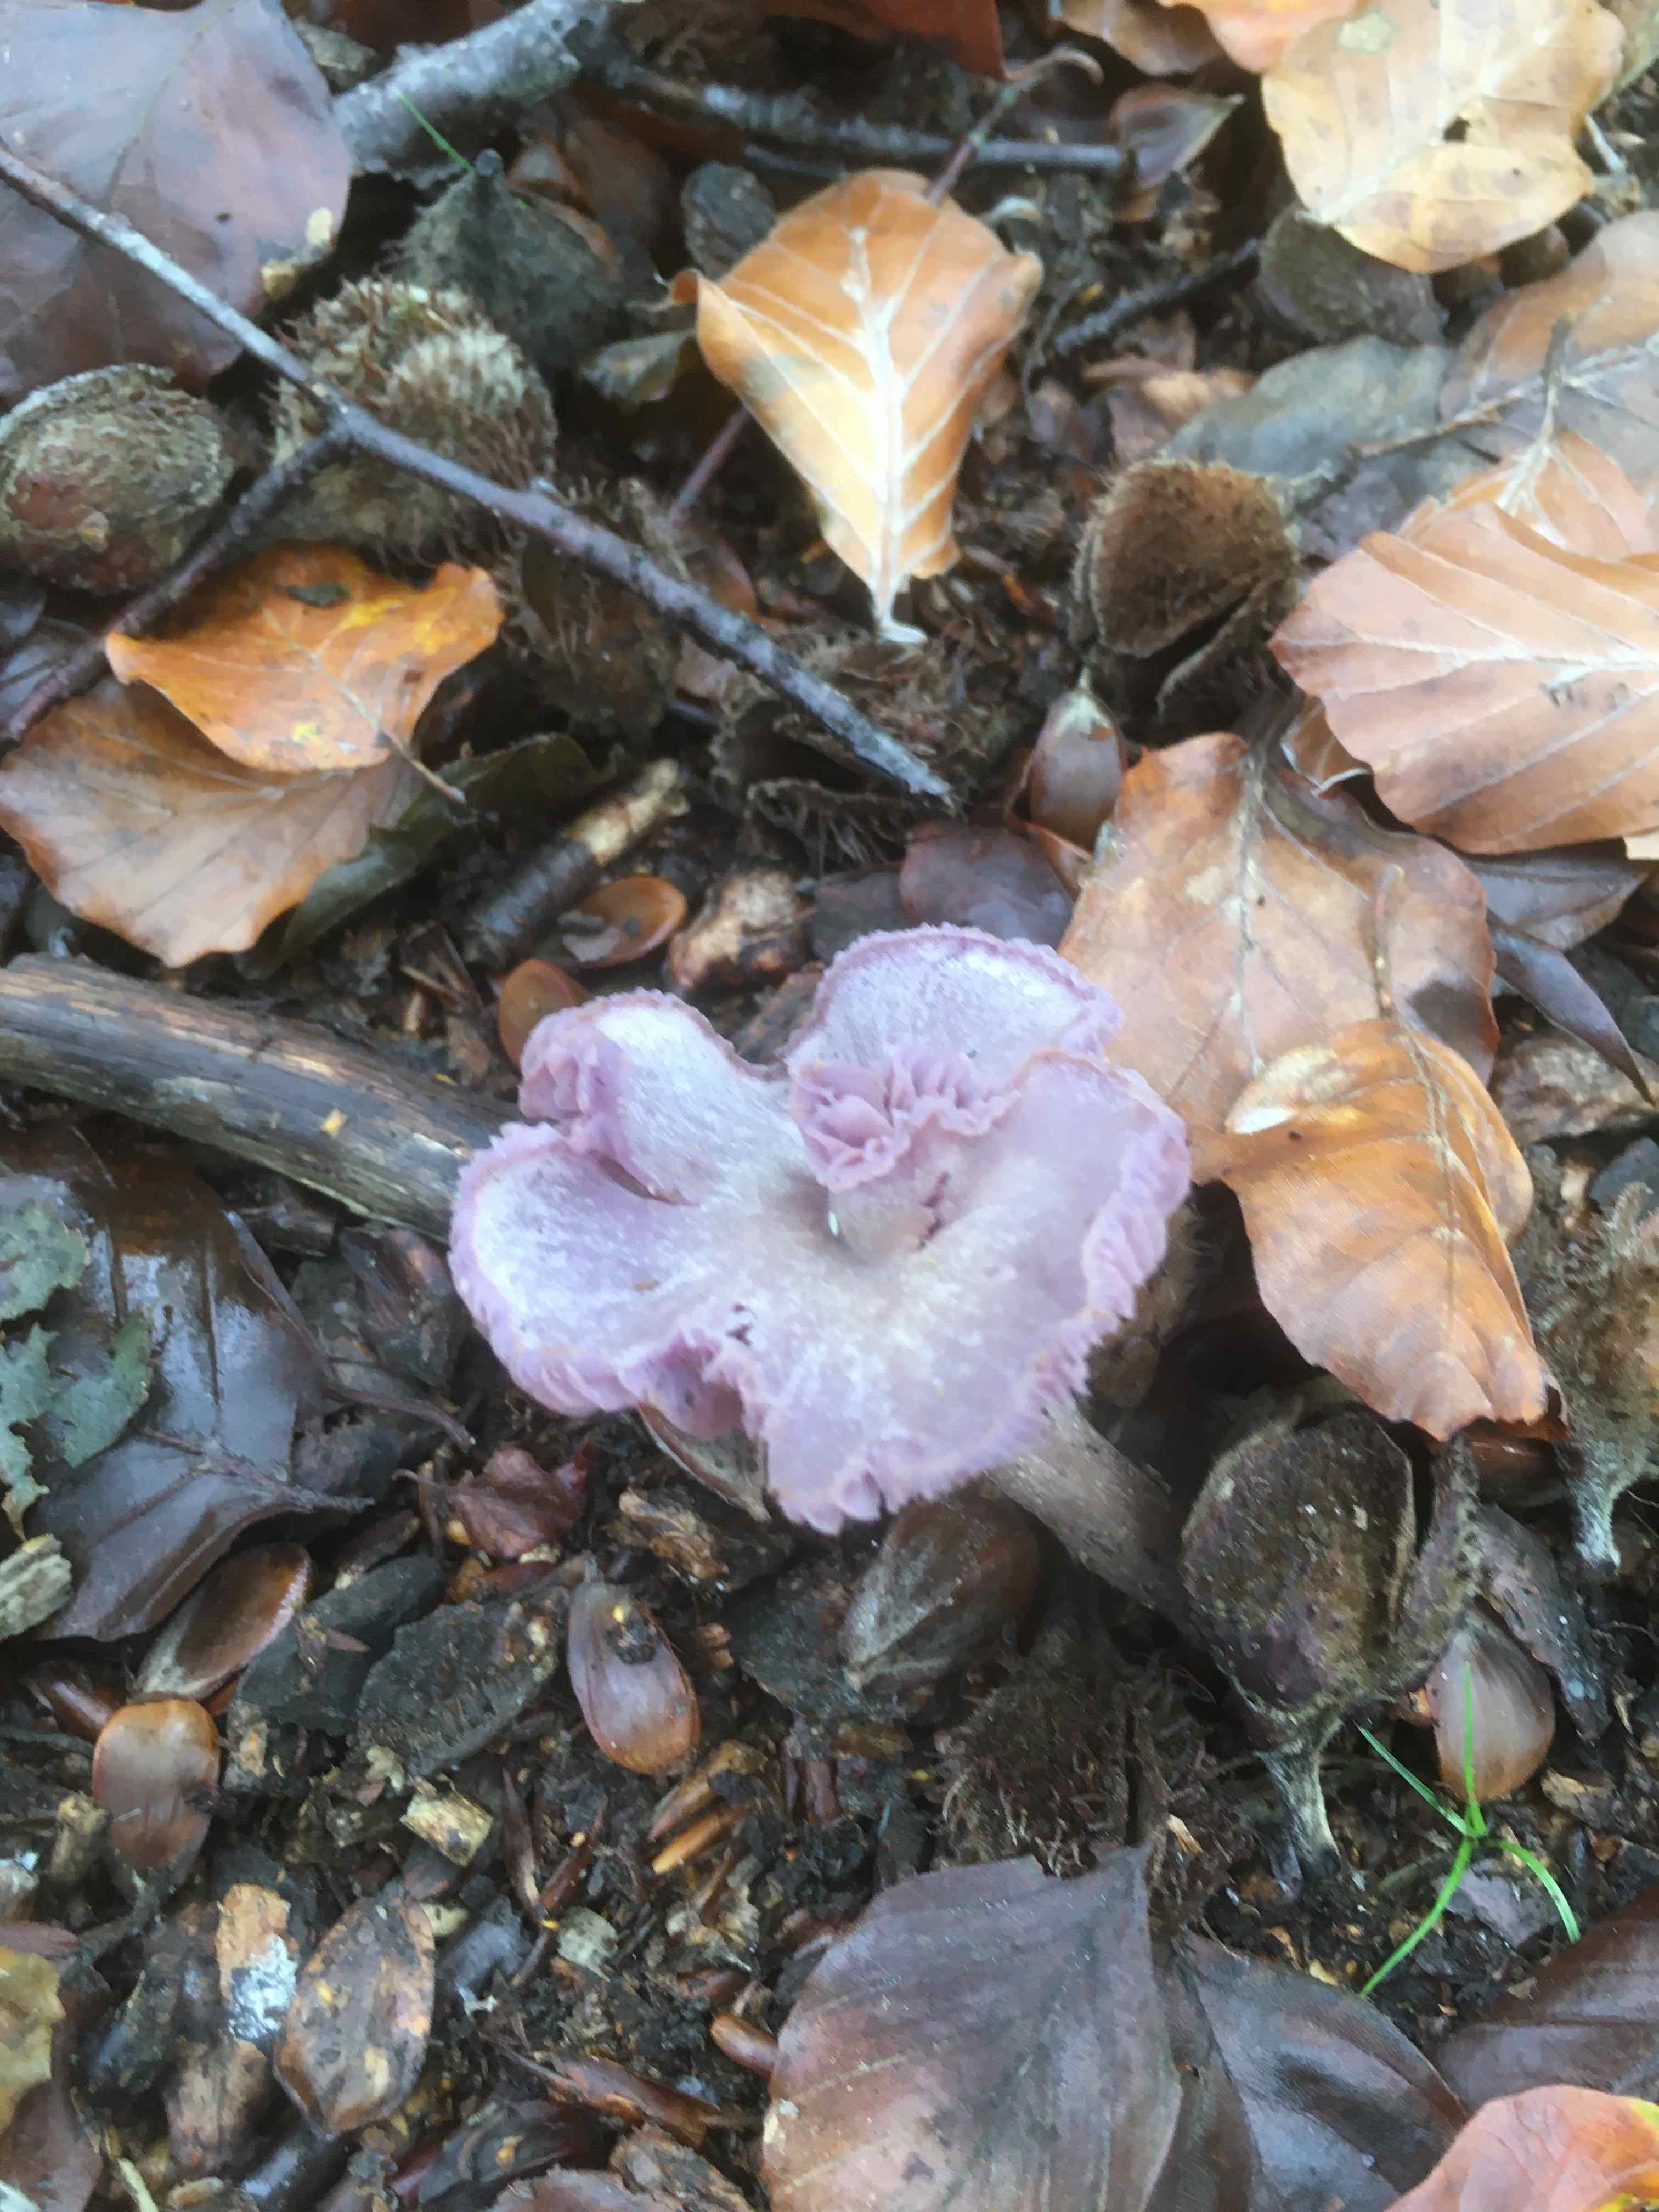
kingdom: Fungi
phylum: Basidiomycota
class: Agaricomycetes
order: Agaricales
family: Hydnangiaceae
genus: Laccaria
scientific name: Laccaria amethystina
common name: violet ametysthat
